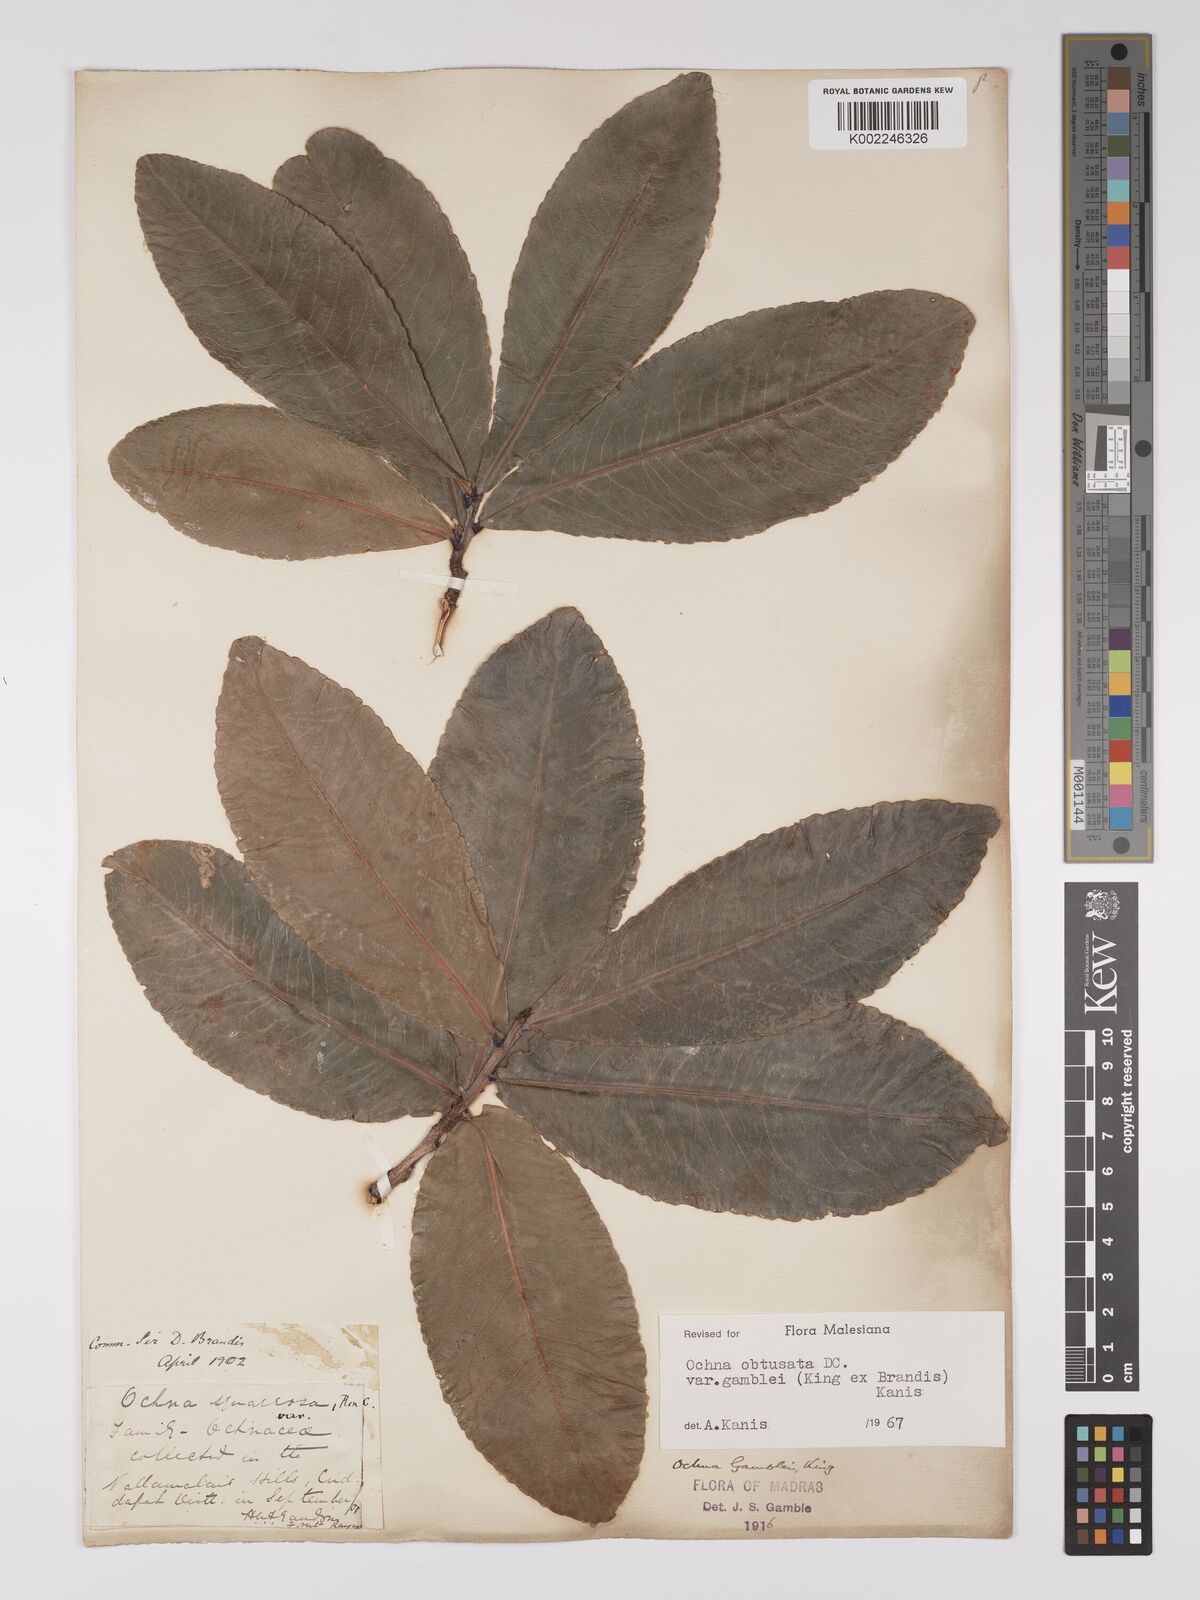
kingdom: Plantae
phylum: Tracheophyta
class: Magnoliopsida
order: Malpighiales
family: Ochnaceae
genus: Ochna
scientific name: Ochna gamblei
